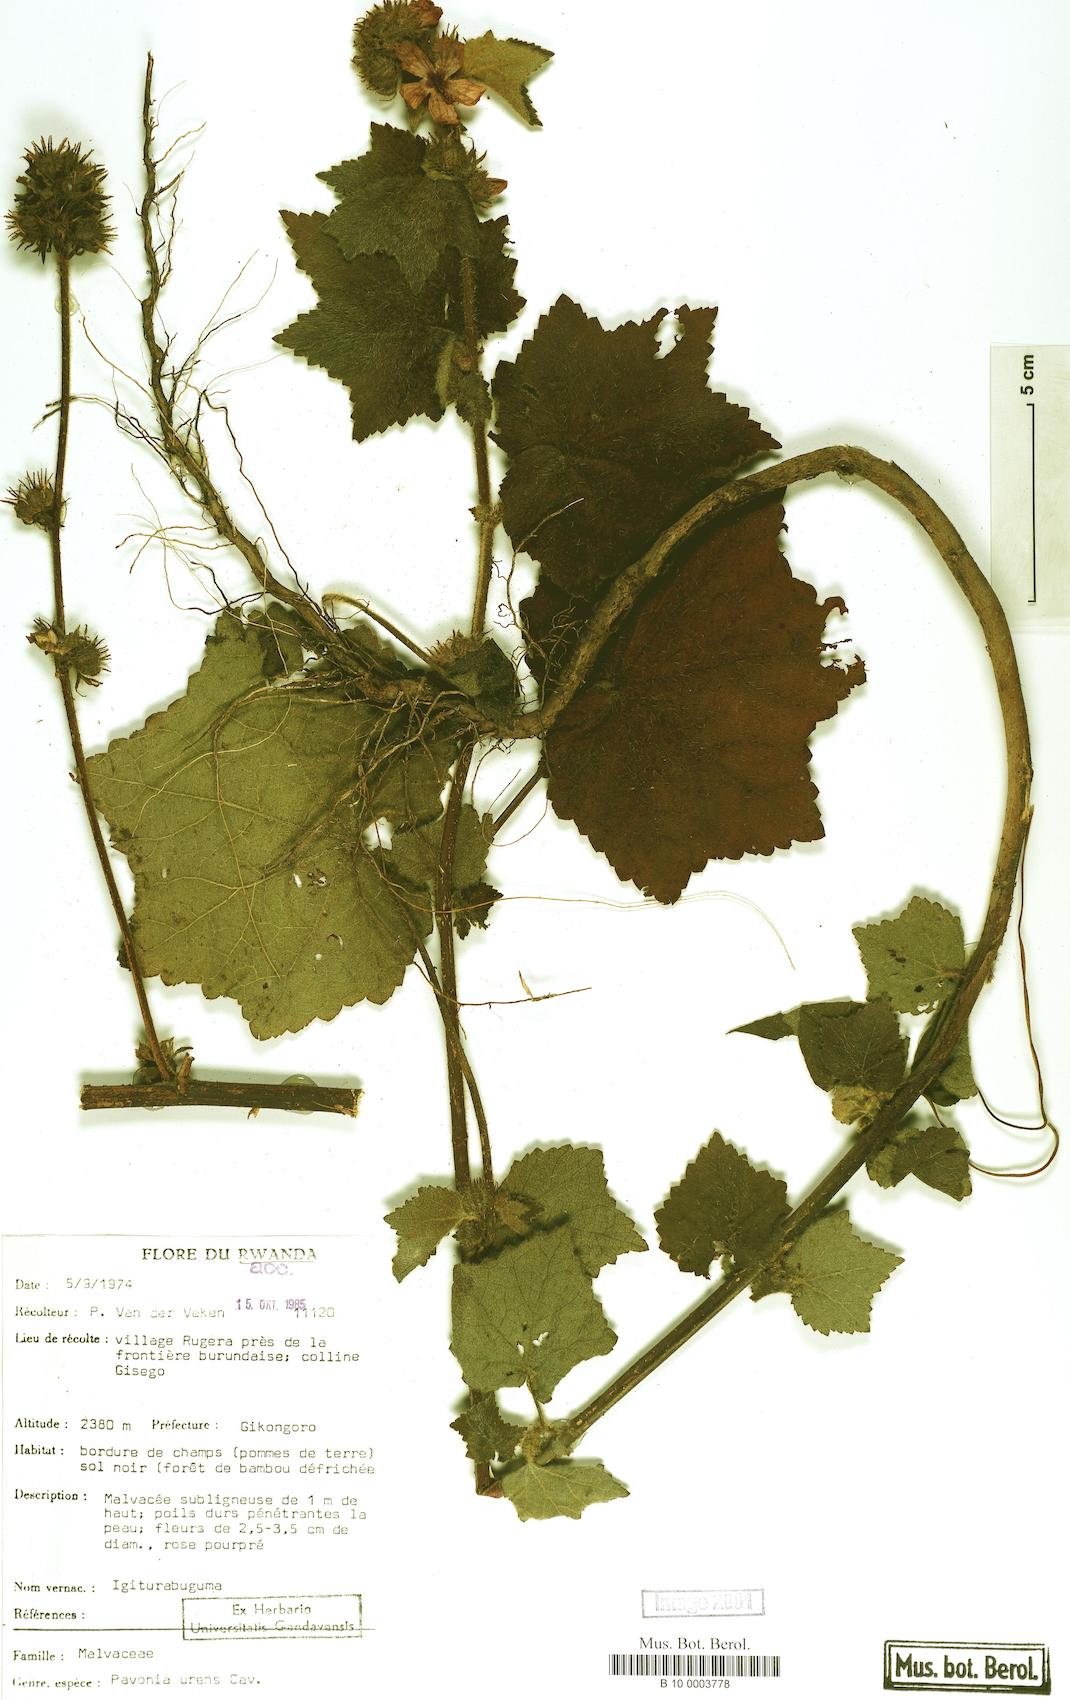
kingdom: Plantae
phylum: Tracheophyta
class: Magnoliopsida
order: Malvales
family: Malvaceae
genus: Pavonia
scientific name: Pavonia urens
